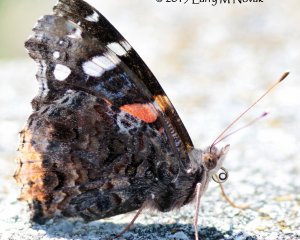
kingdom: Animalia
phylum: Arthropoda
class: Insecta
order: Lepidoptera
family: Nymphalidae
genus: Vanessa
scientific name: Vanessa atalanta
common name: Red Admiral
